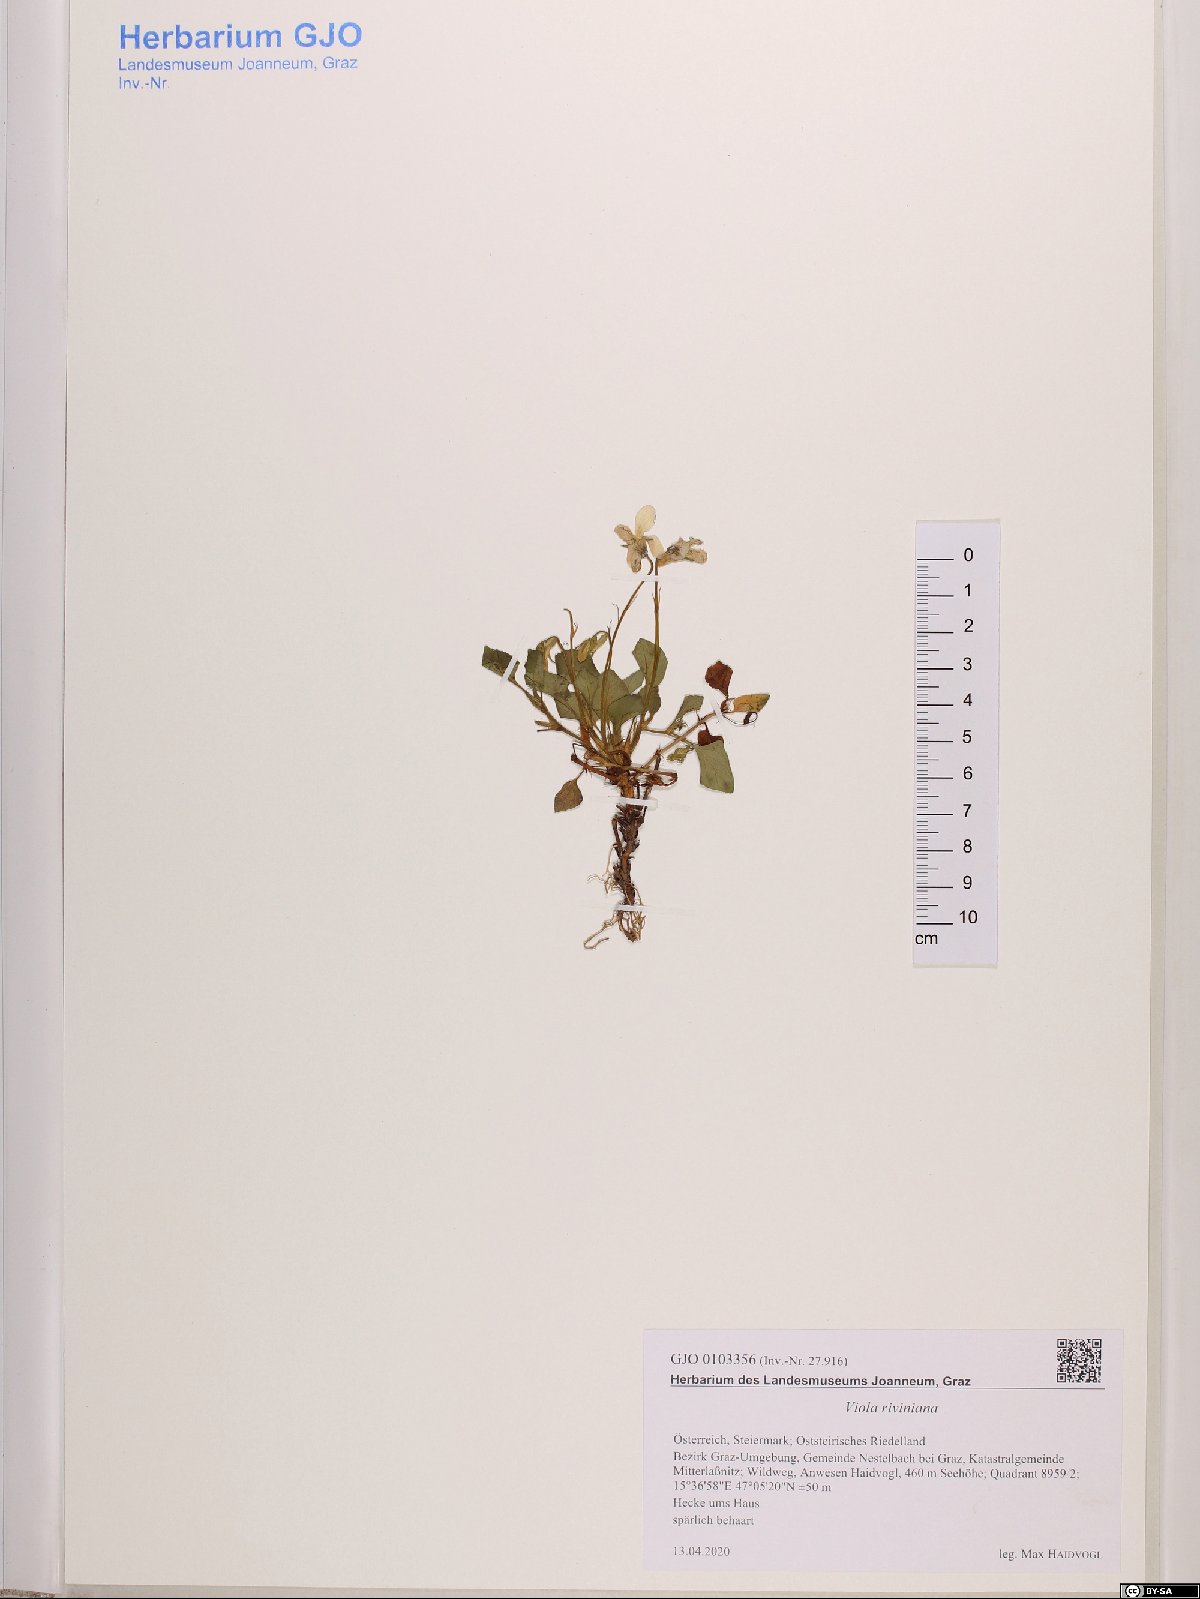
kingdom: Plantae
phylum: Tracheophyta
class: Magnoliopsida
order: Malpighiales
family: Violaceae
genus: Viola
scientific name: Viola riviniana
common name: Common dog-violet
